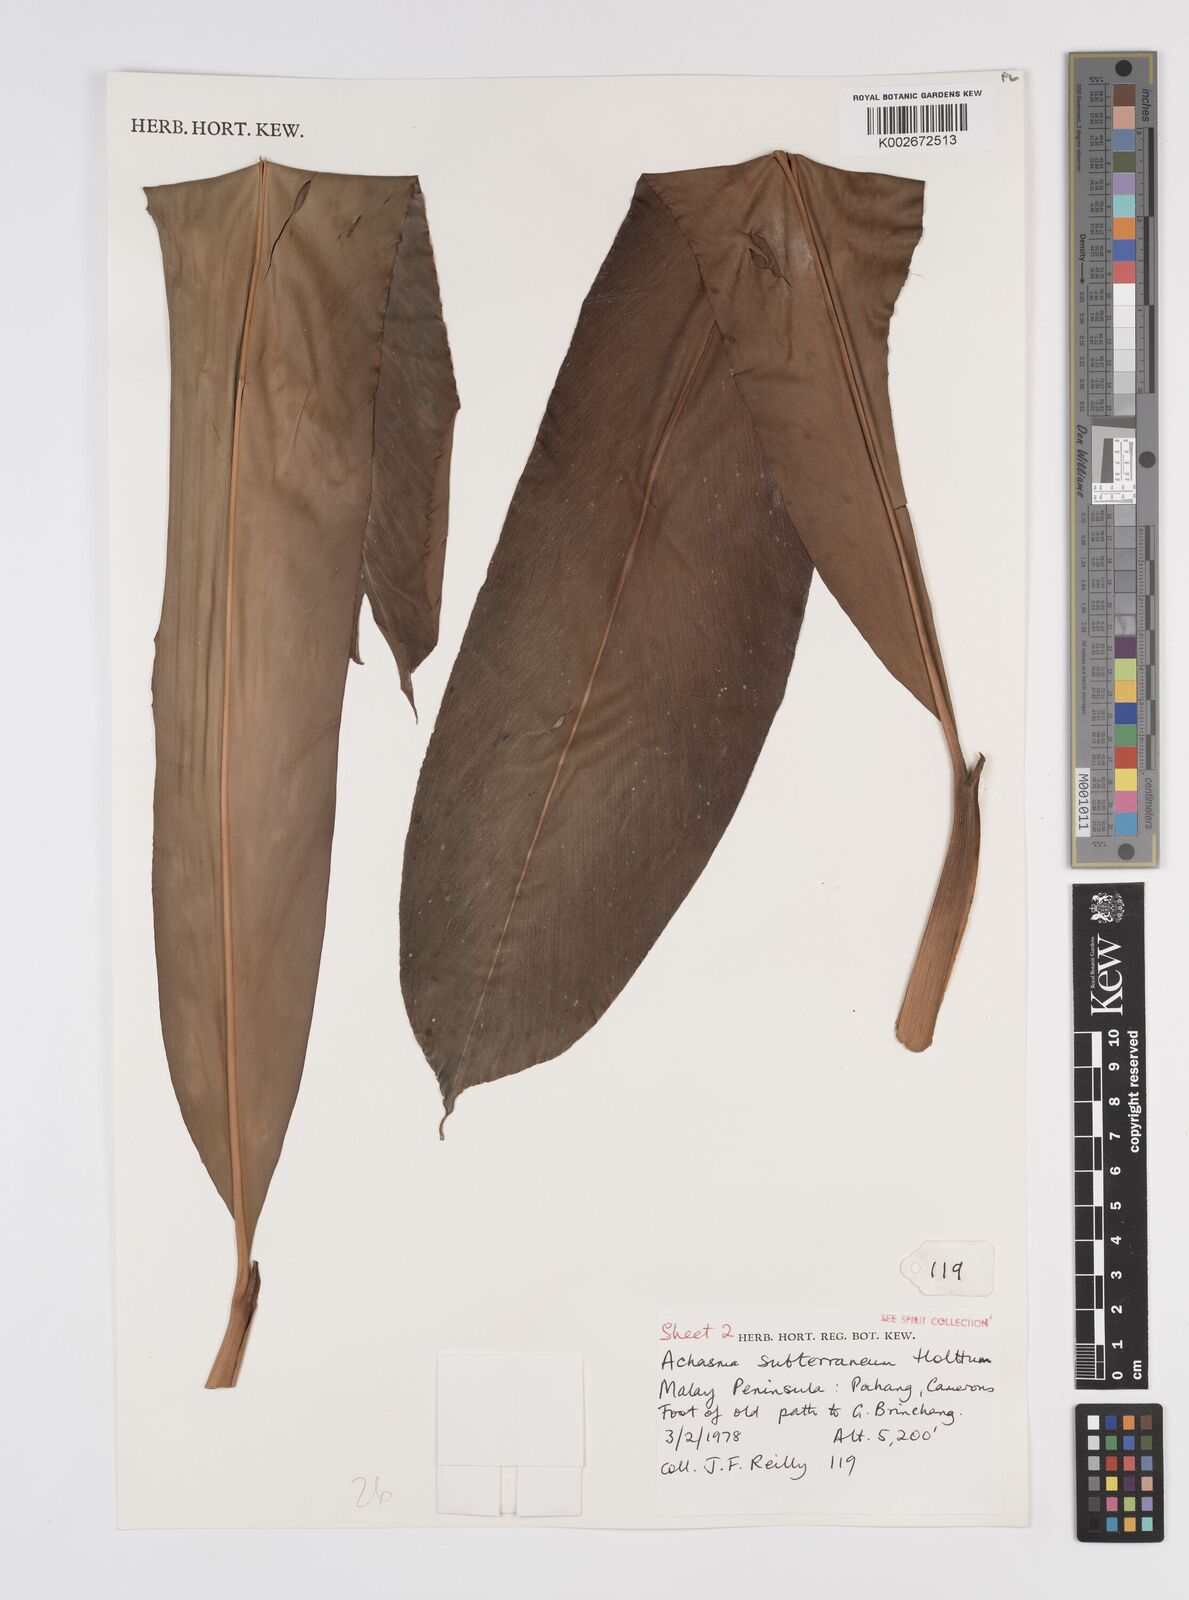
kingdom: Plantae
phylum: Tracheophyta
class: Liliopsida
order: Zingiberales
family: Zingiberaceae
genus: Etlingera
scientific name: Etlingera subterranea
